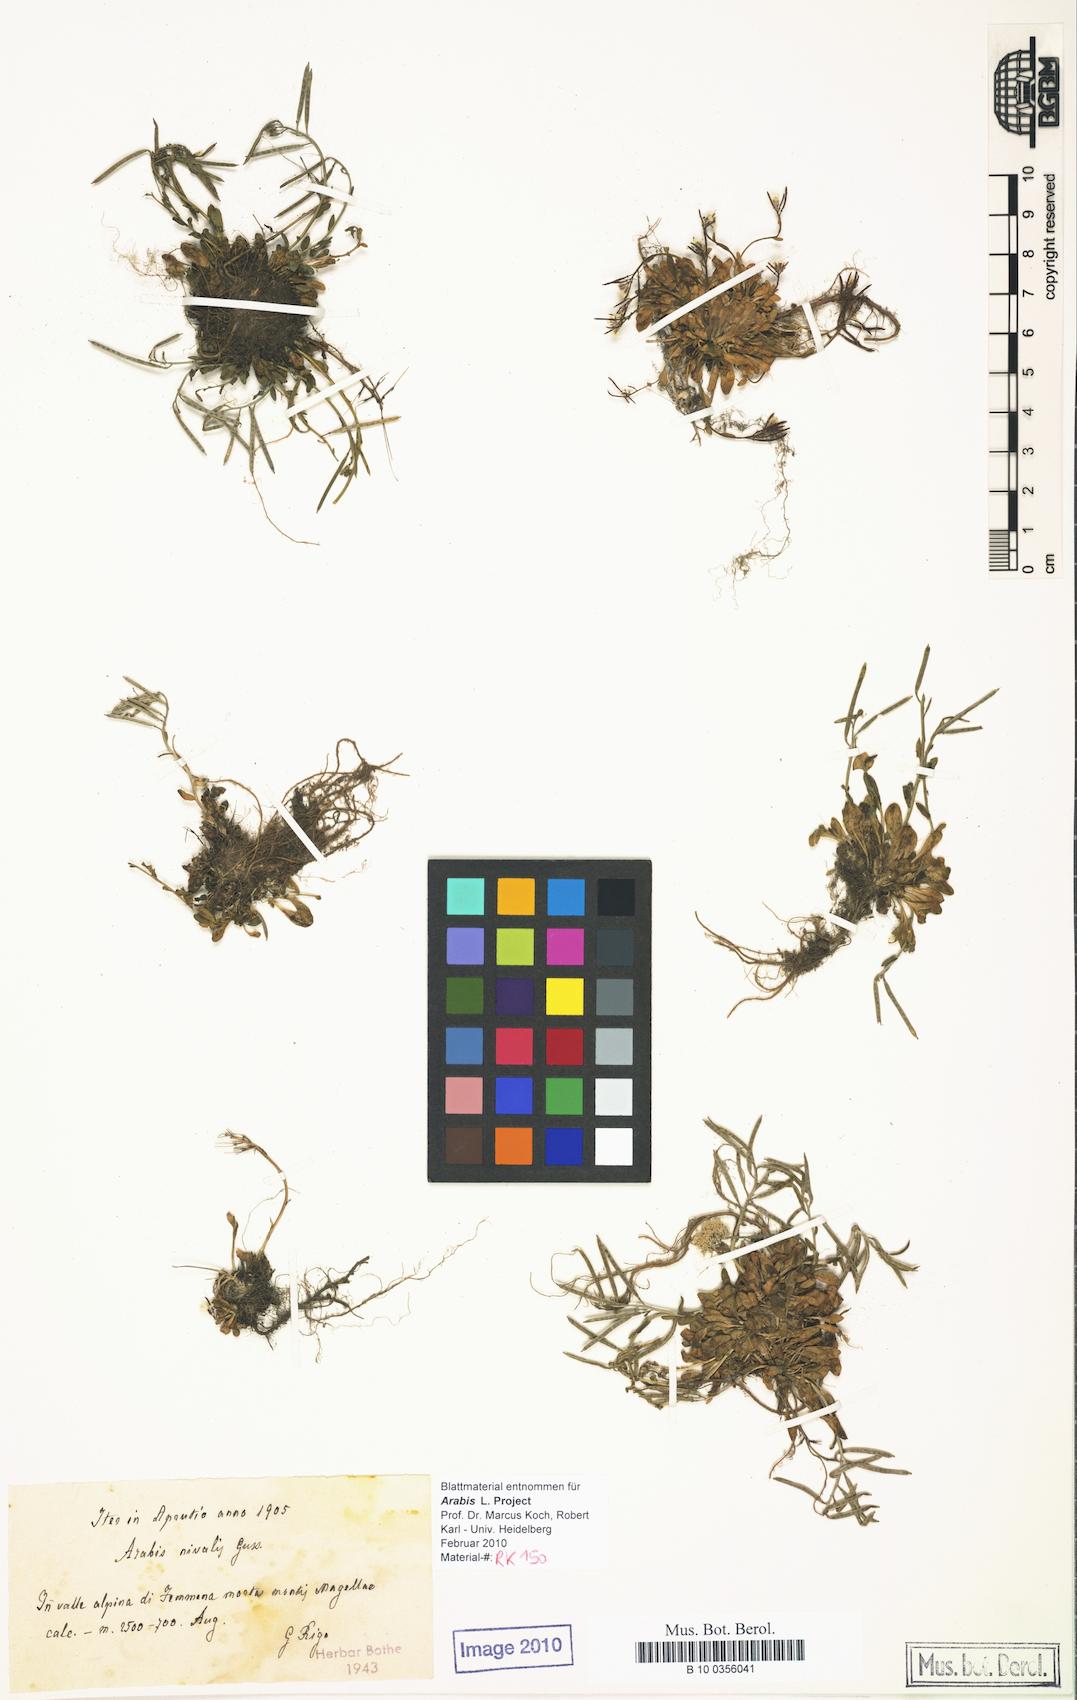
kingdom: Plantae
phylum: Tracheophyta
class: Magnoliopsida
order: Brassicales
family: Brassicaceae
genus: Arabis
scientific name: Arabis surculosa
